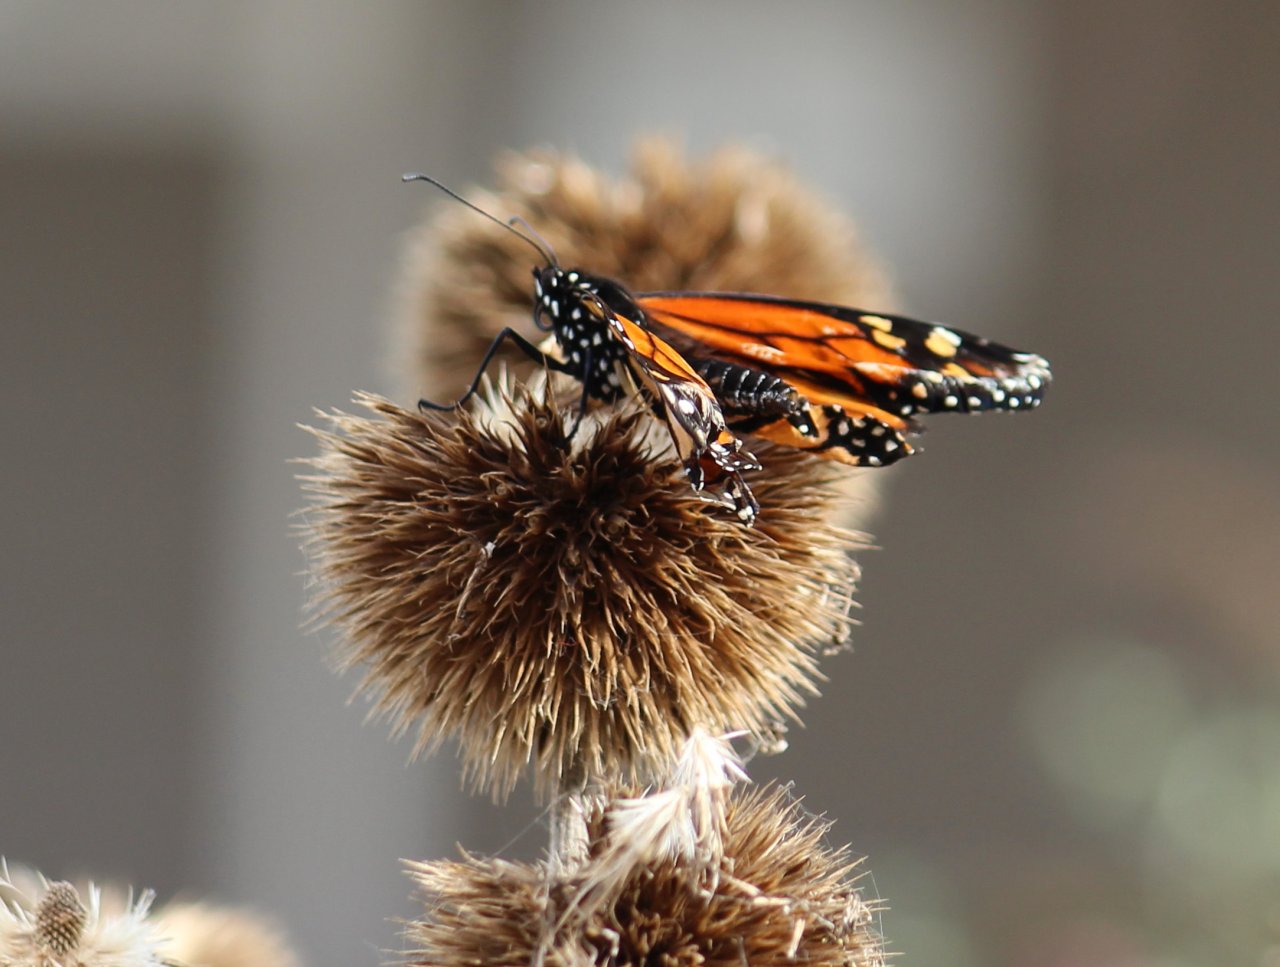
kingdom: Animalia
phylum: Arthropoda
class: Insecta
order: Lepidoptera
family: Nymphalidae
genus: Danaus
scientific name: Danaus plexippus
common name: Monarch
